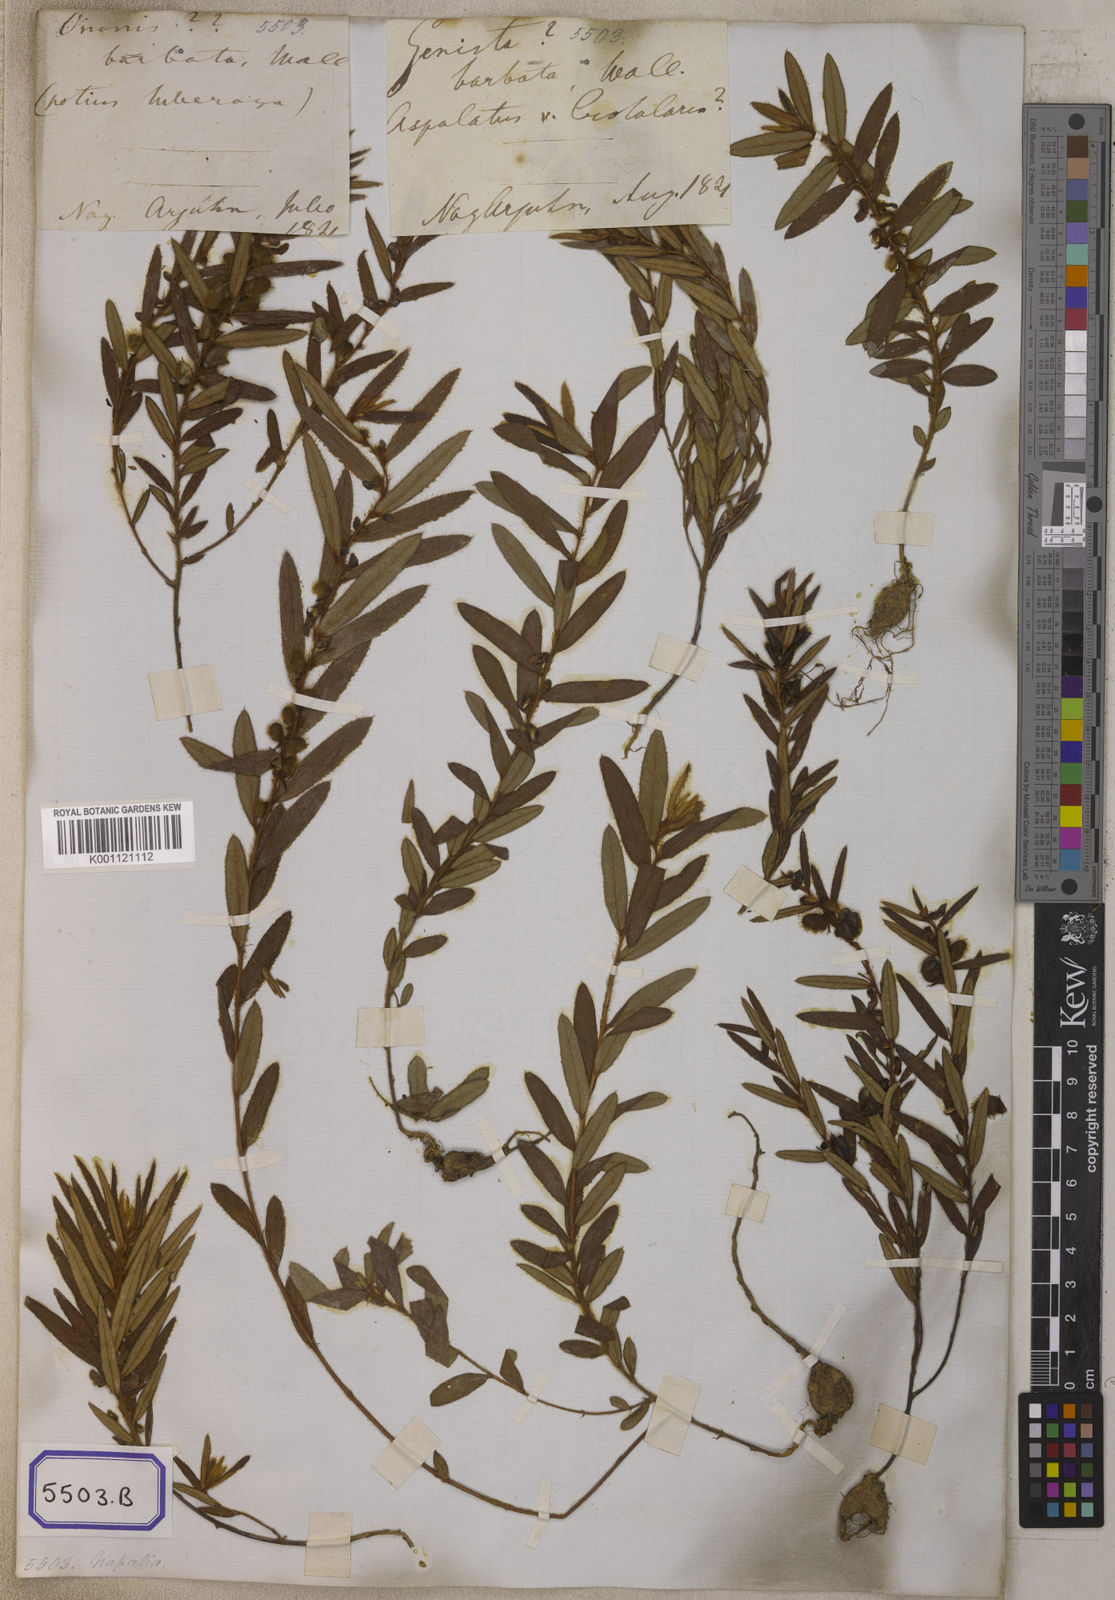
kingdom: Plantae
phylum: Tracheophyta
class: Magnoliopsida
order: Fabales
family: Fabaceae
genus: Eriosema
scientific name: Eriosema chinense
